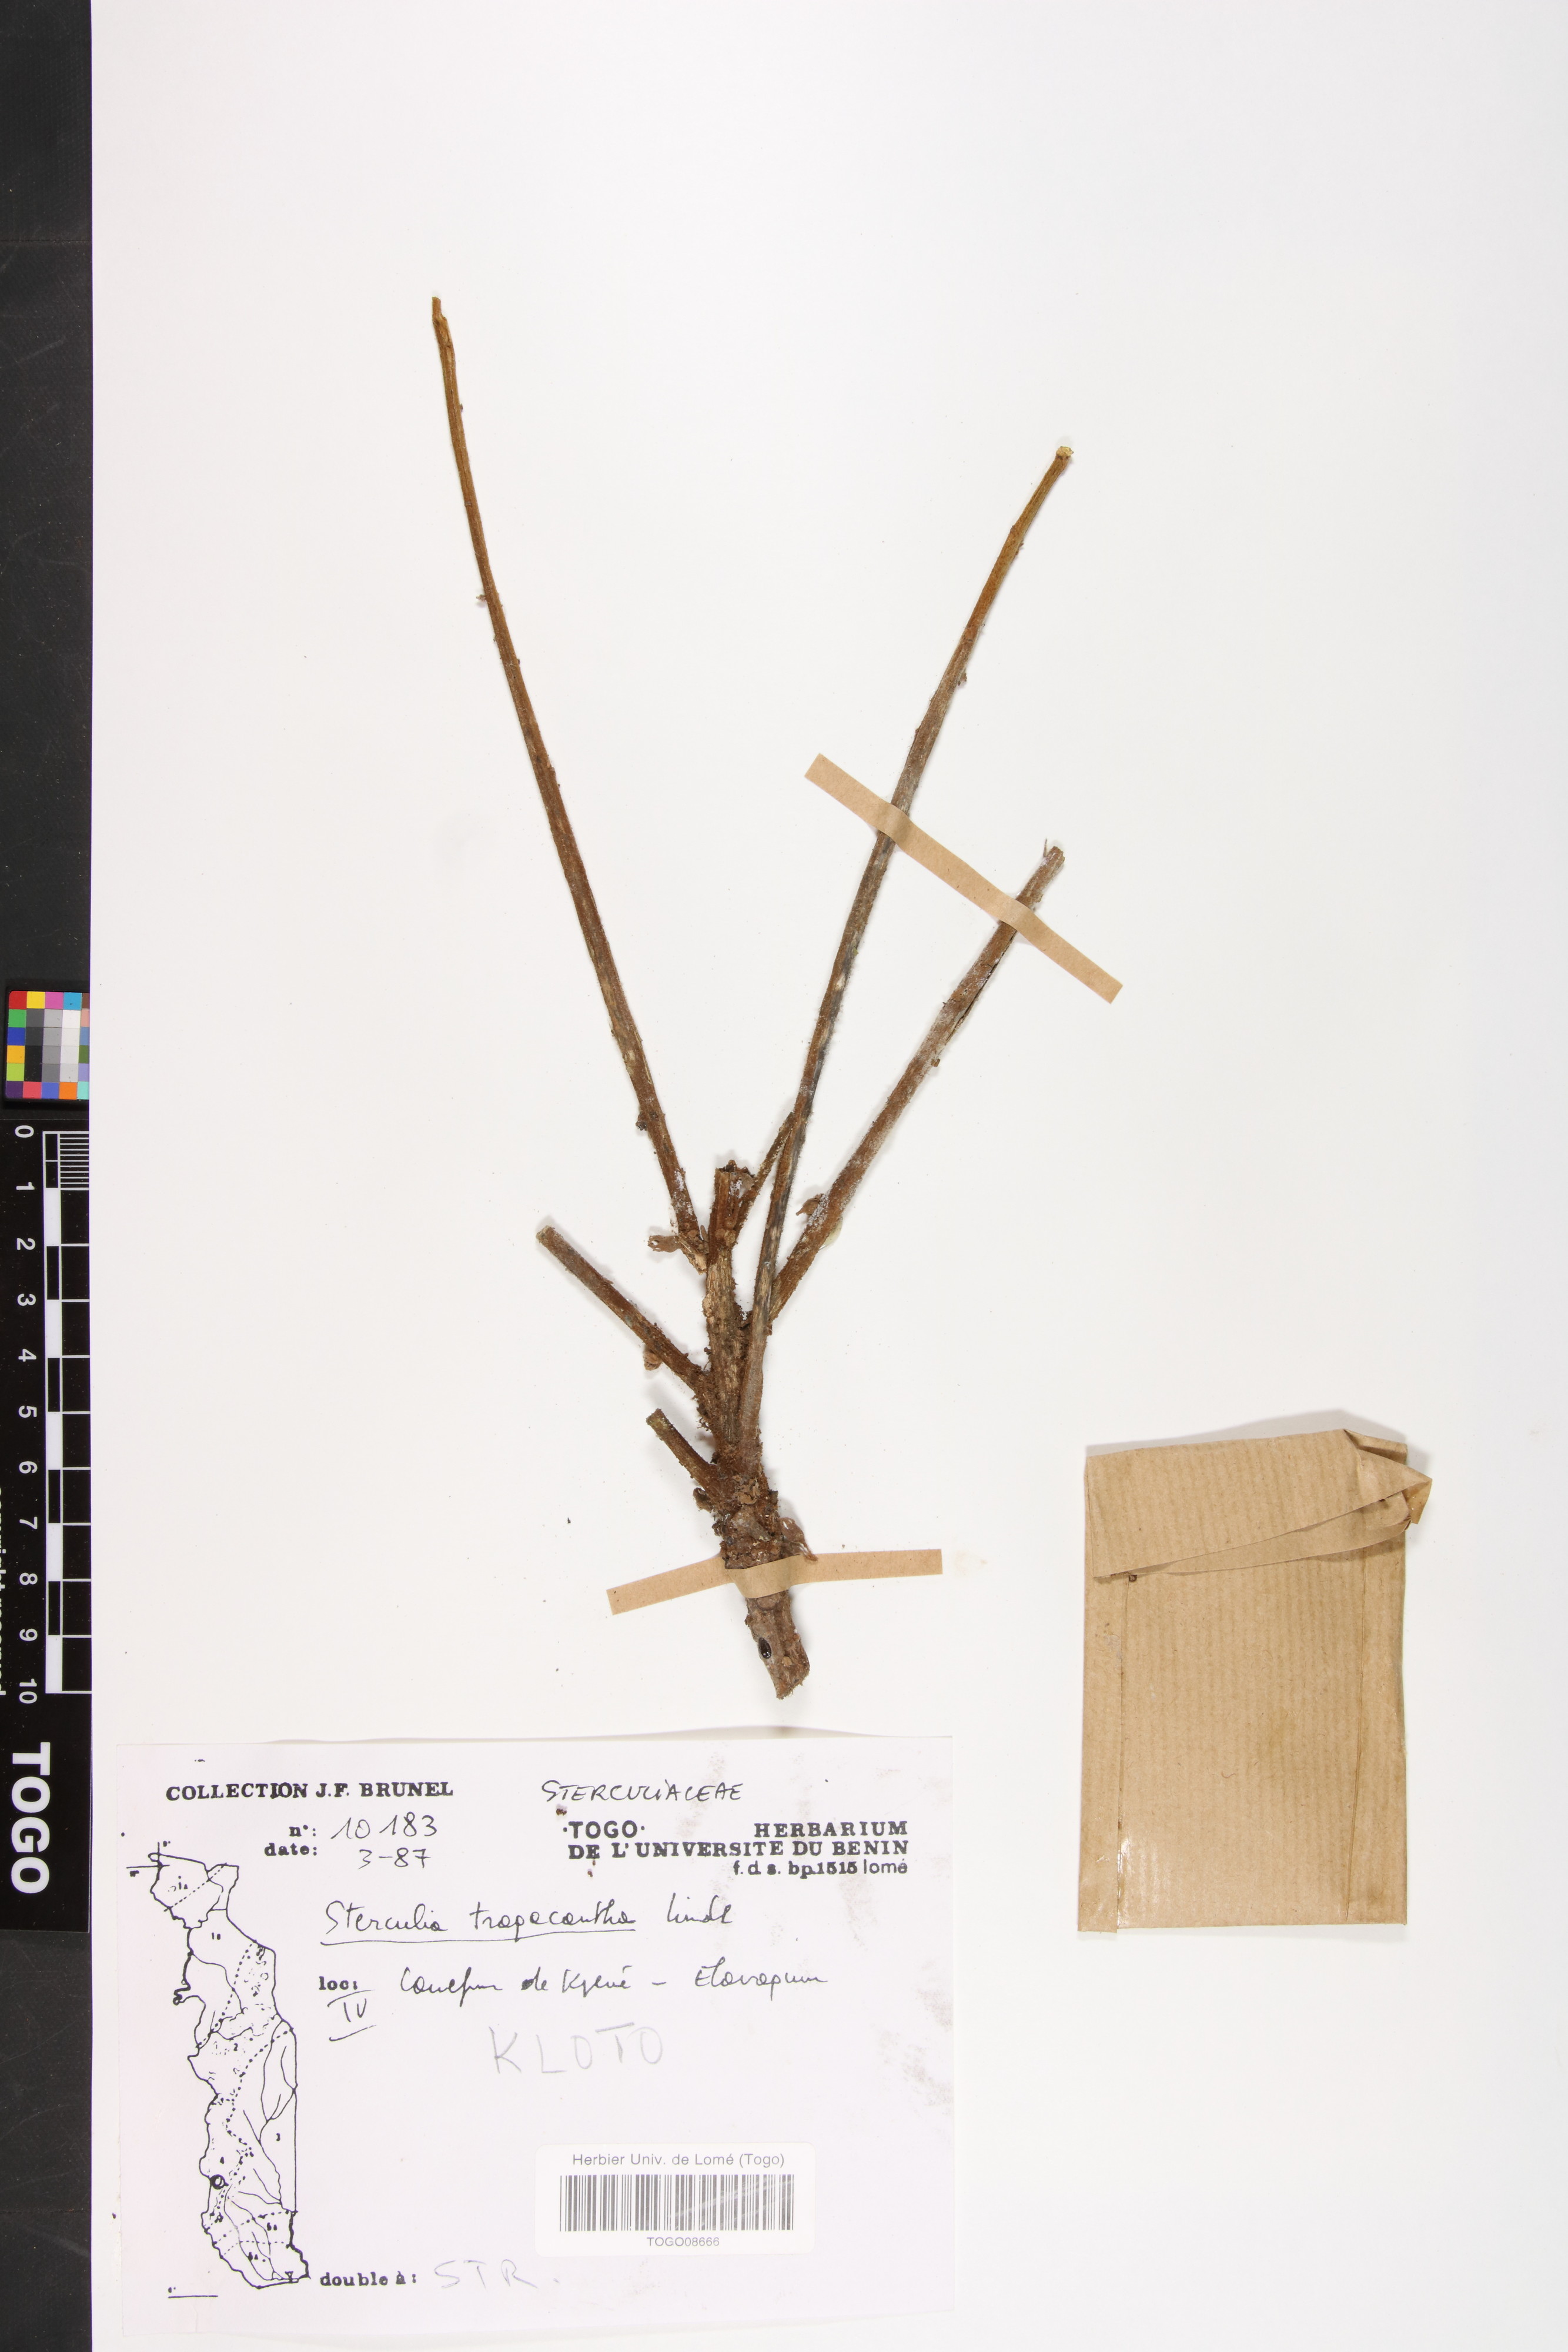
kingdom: Plantae
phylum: Tracheophyta
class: Magnoliopsida
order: Malvales
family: Malvaceae
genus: Sterculia
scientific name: Sterculia tragacantha
